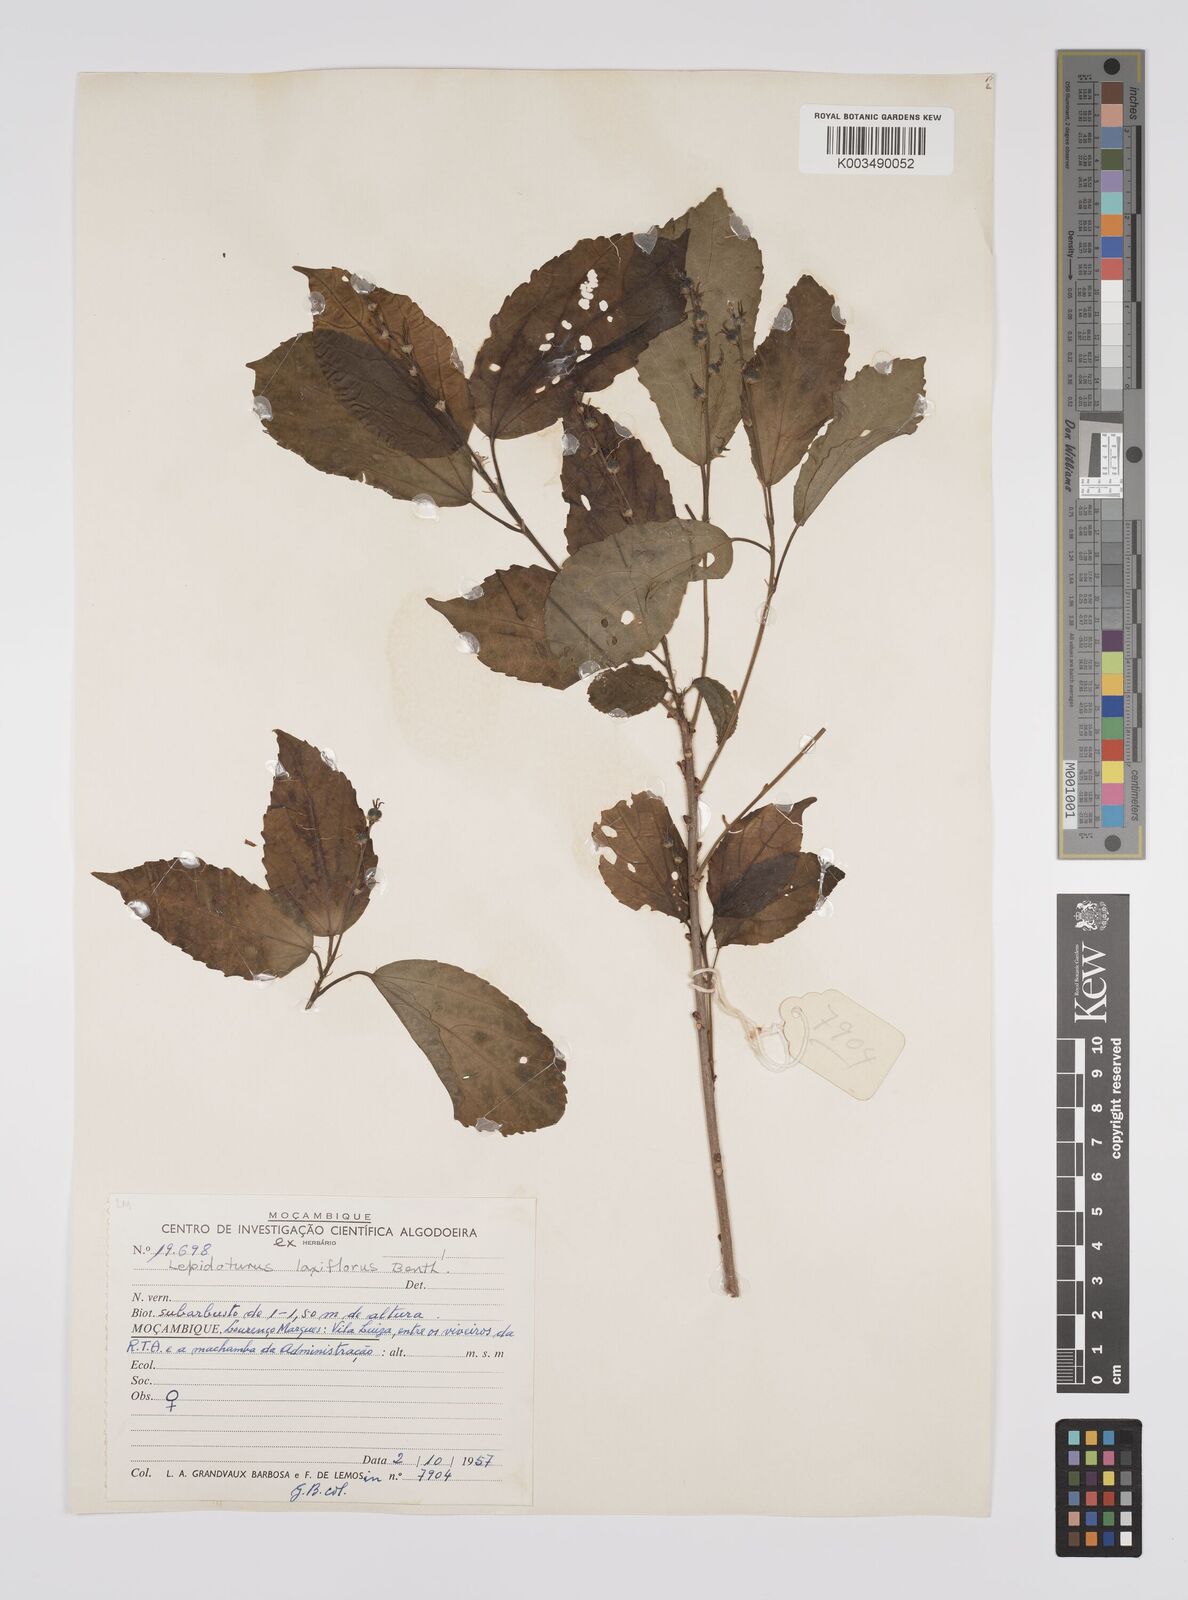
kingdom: Plantae
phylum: Tracheophyta
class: Magnoliopsida
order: Malpighiales
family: Euphorbiaceae
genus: Alchornea
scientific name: Alchornea laxiflora
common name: Lowveld bead-string
